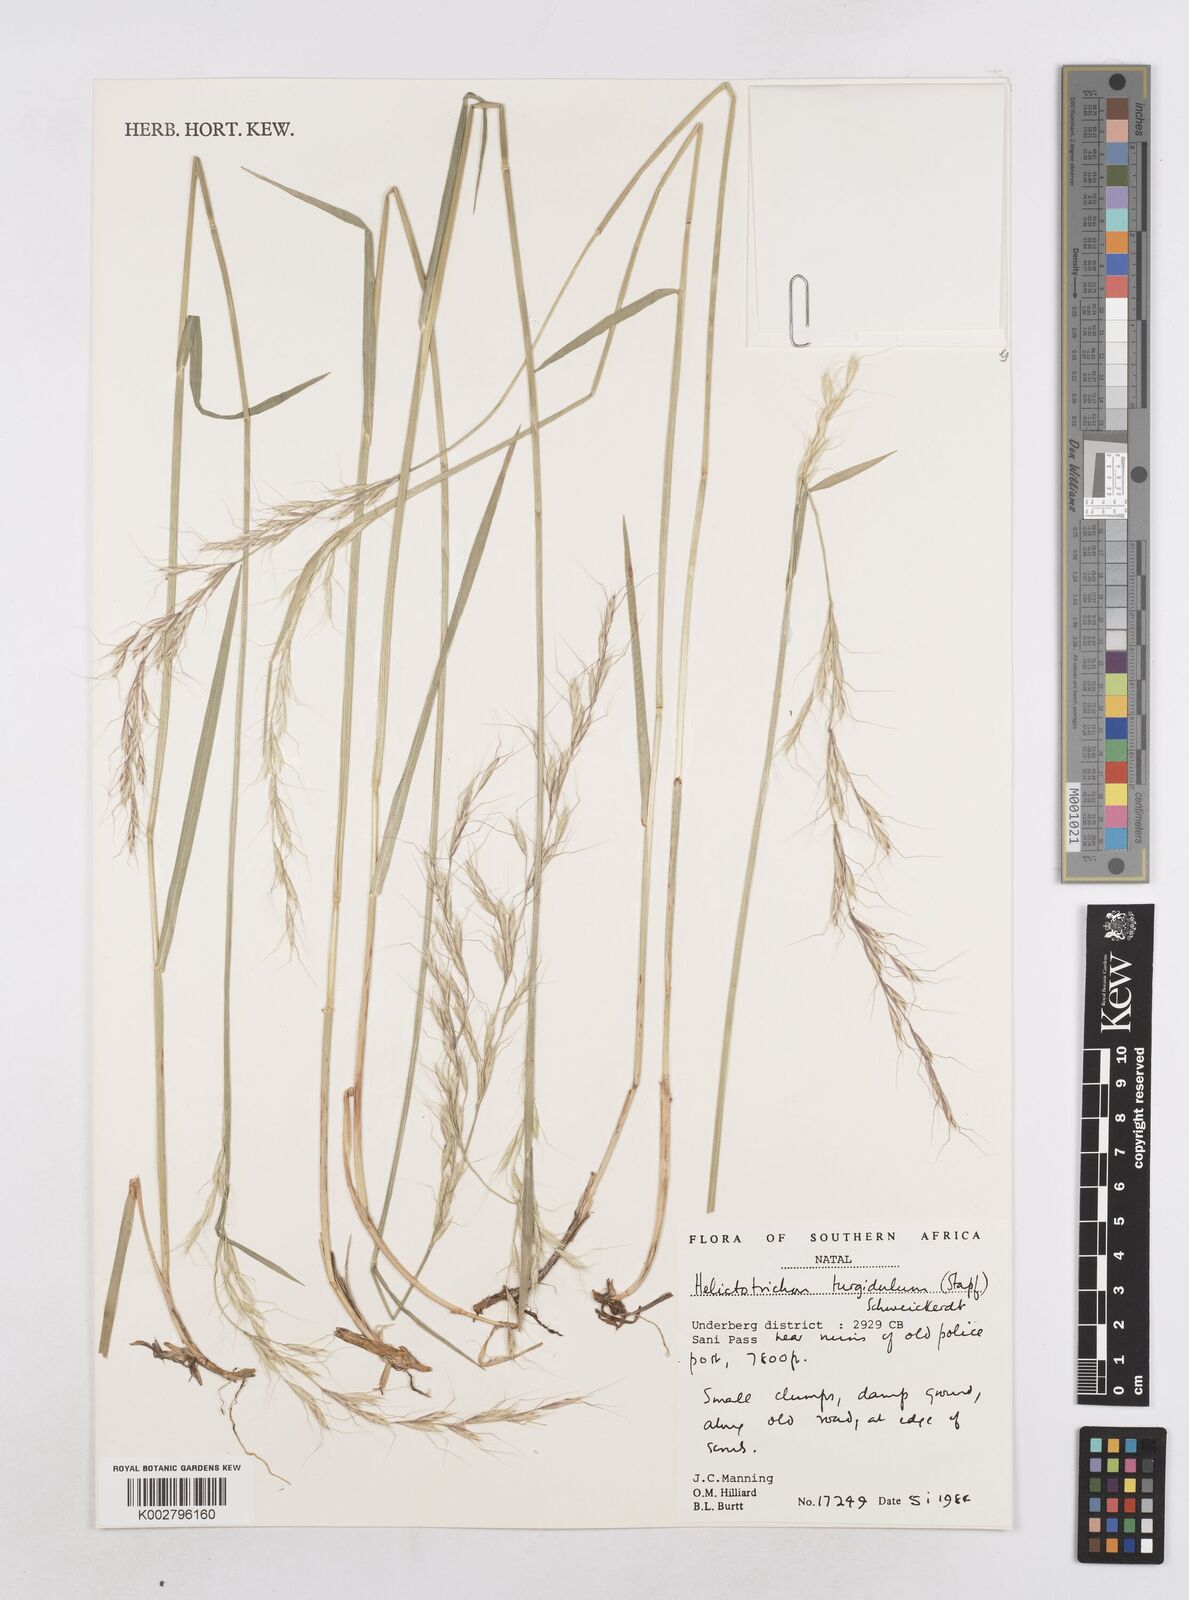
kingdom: Plantae
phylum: Tracheophyta
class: Liliopsida
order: Poales
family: Poaceae
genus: Trisetopsis
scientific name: Trisetopsis imberbis
